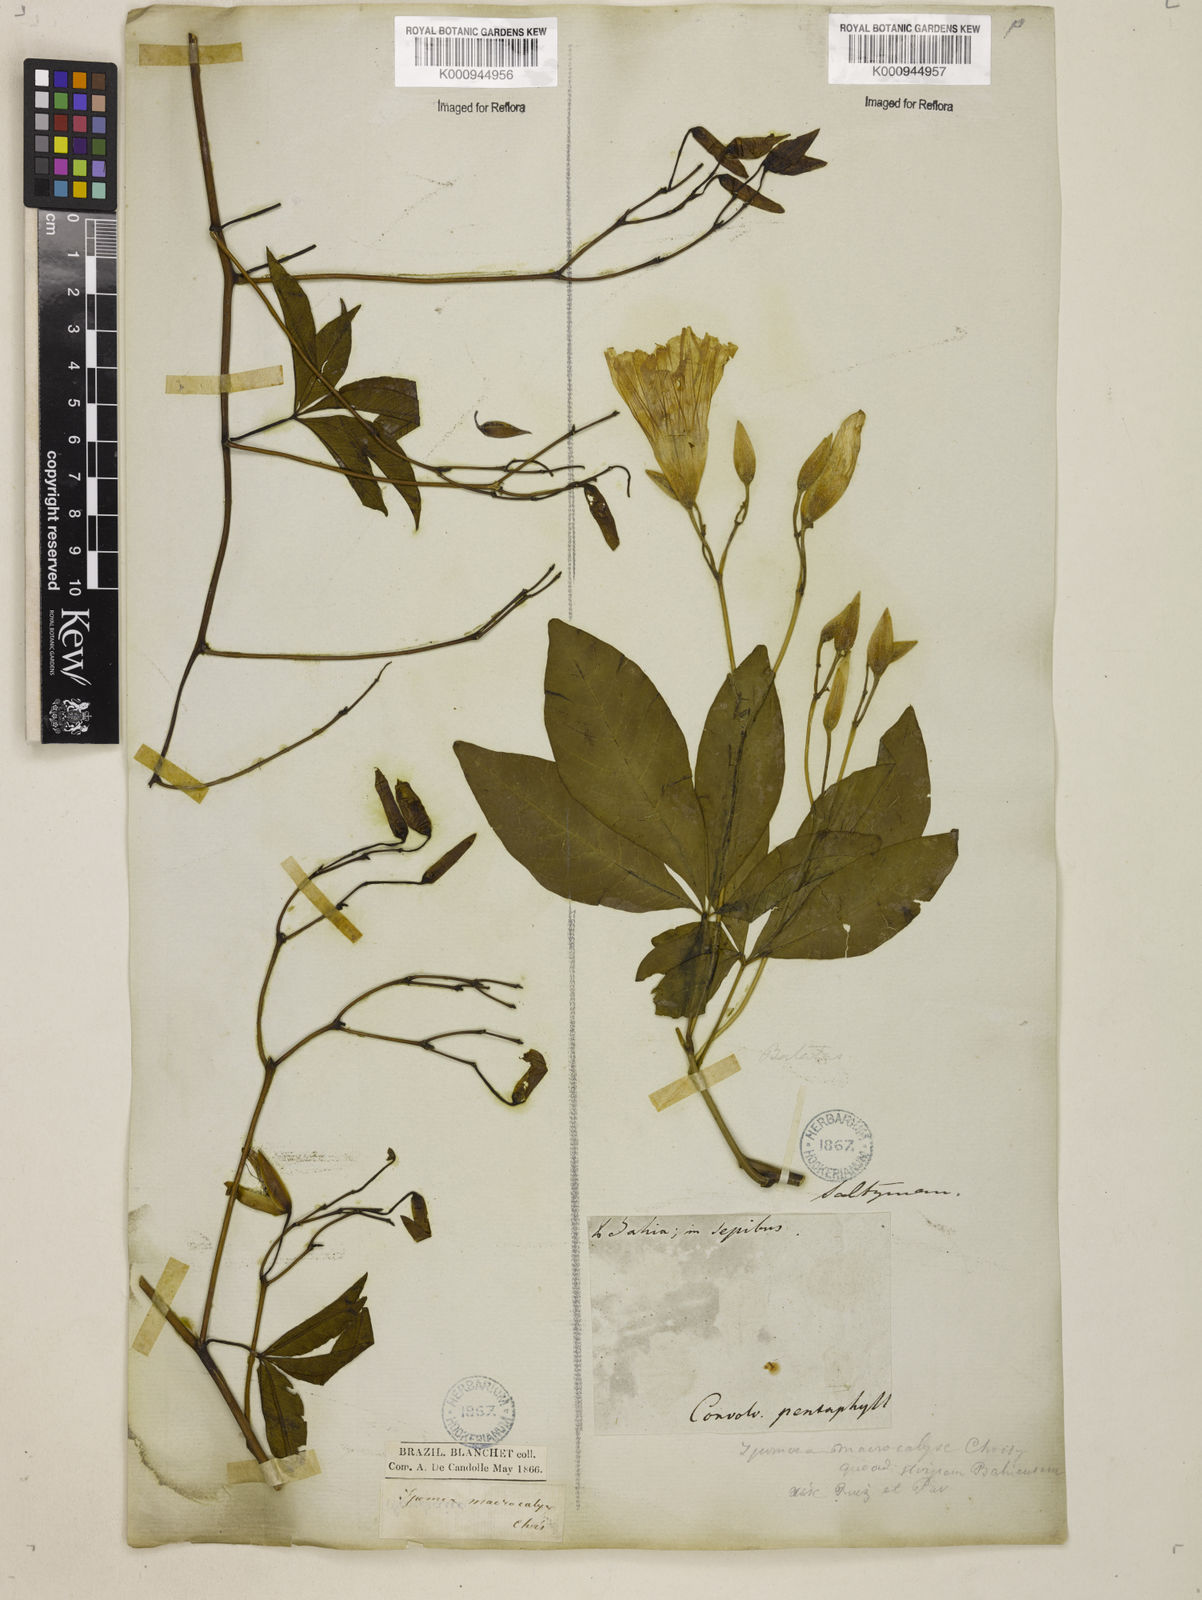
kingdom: Plantae
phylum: Tracheophyta
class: Magnoliopsida
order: Solanales
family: Convolvulaceae
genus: Distimake
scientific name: Distimake macrocalyx
